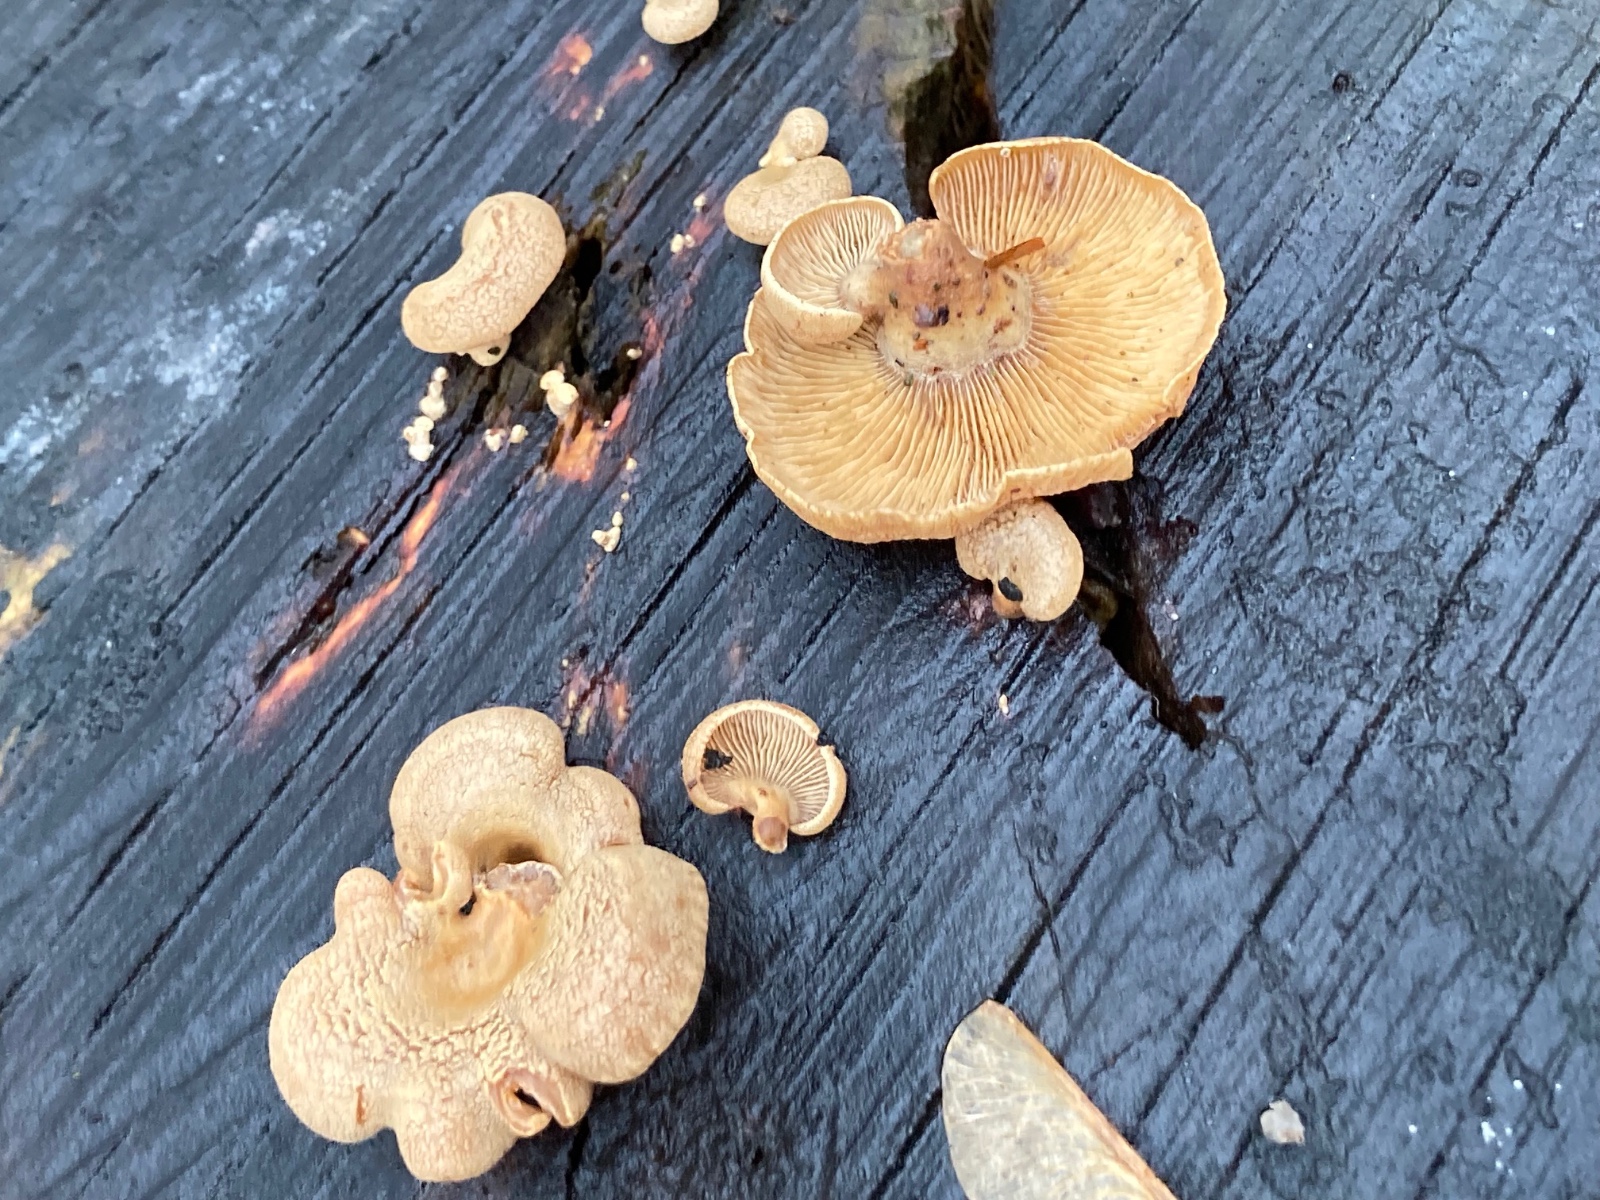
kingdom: Fungi
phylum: Basidiomycota
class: Agaricomycetes
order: Agaricales
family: Mycenaceae
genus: Panellus
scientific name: Panellus stipticus
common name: kliddet epaulethat
